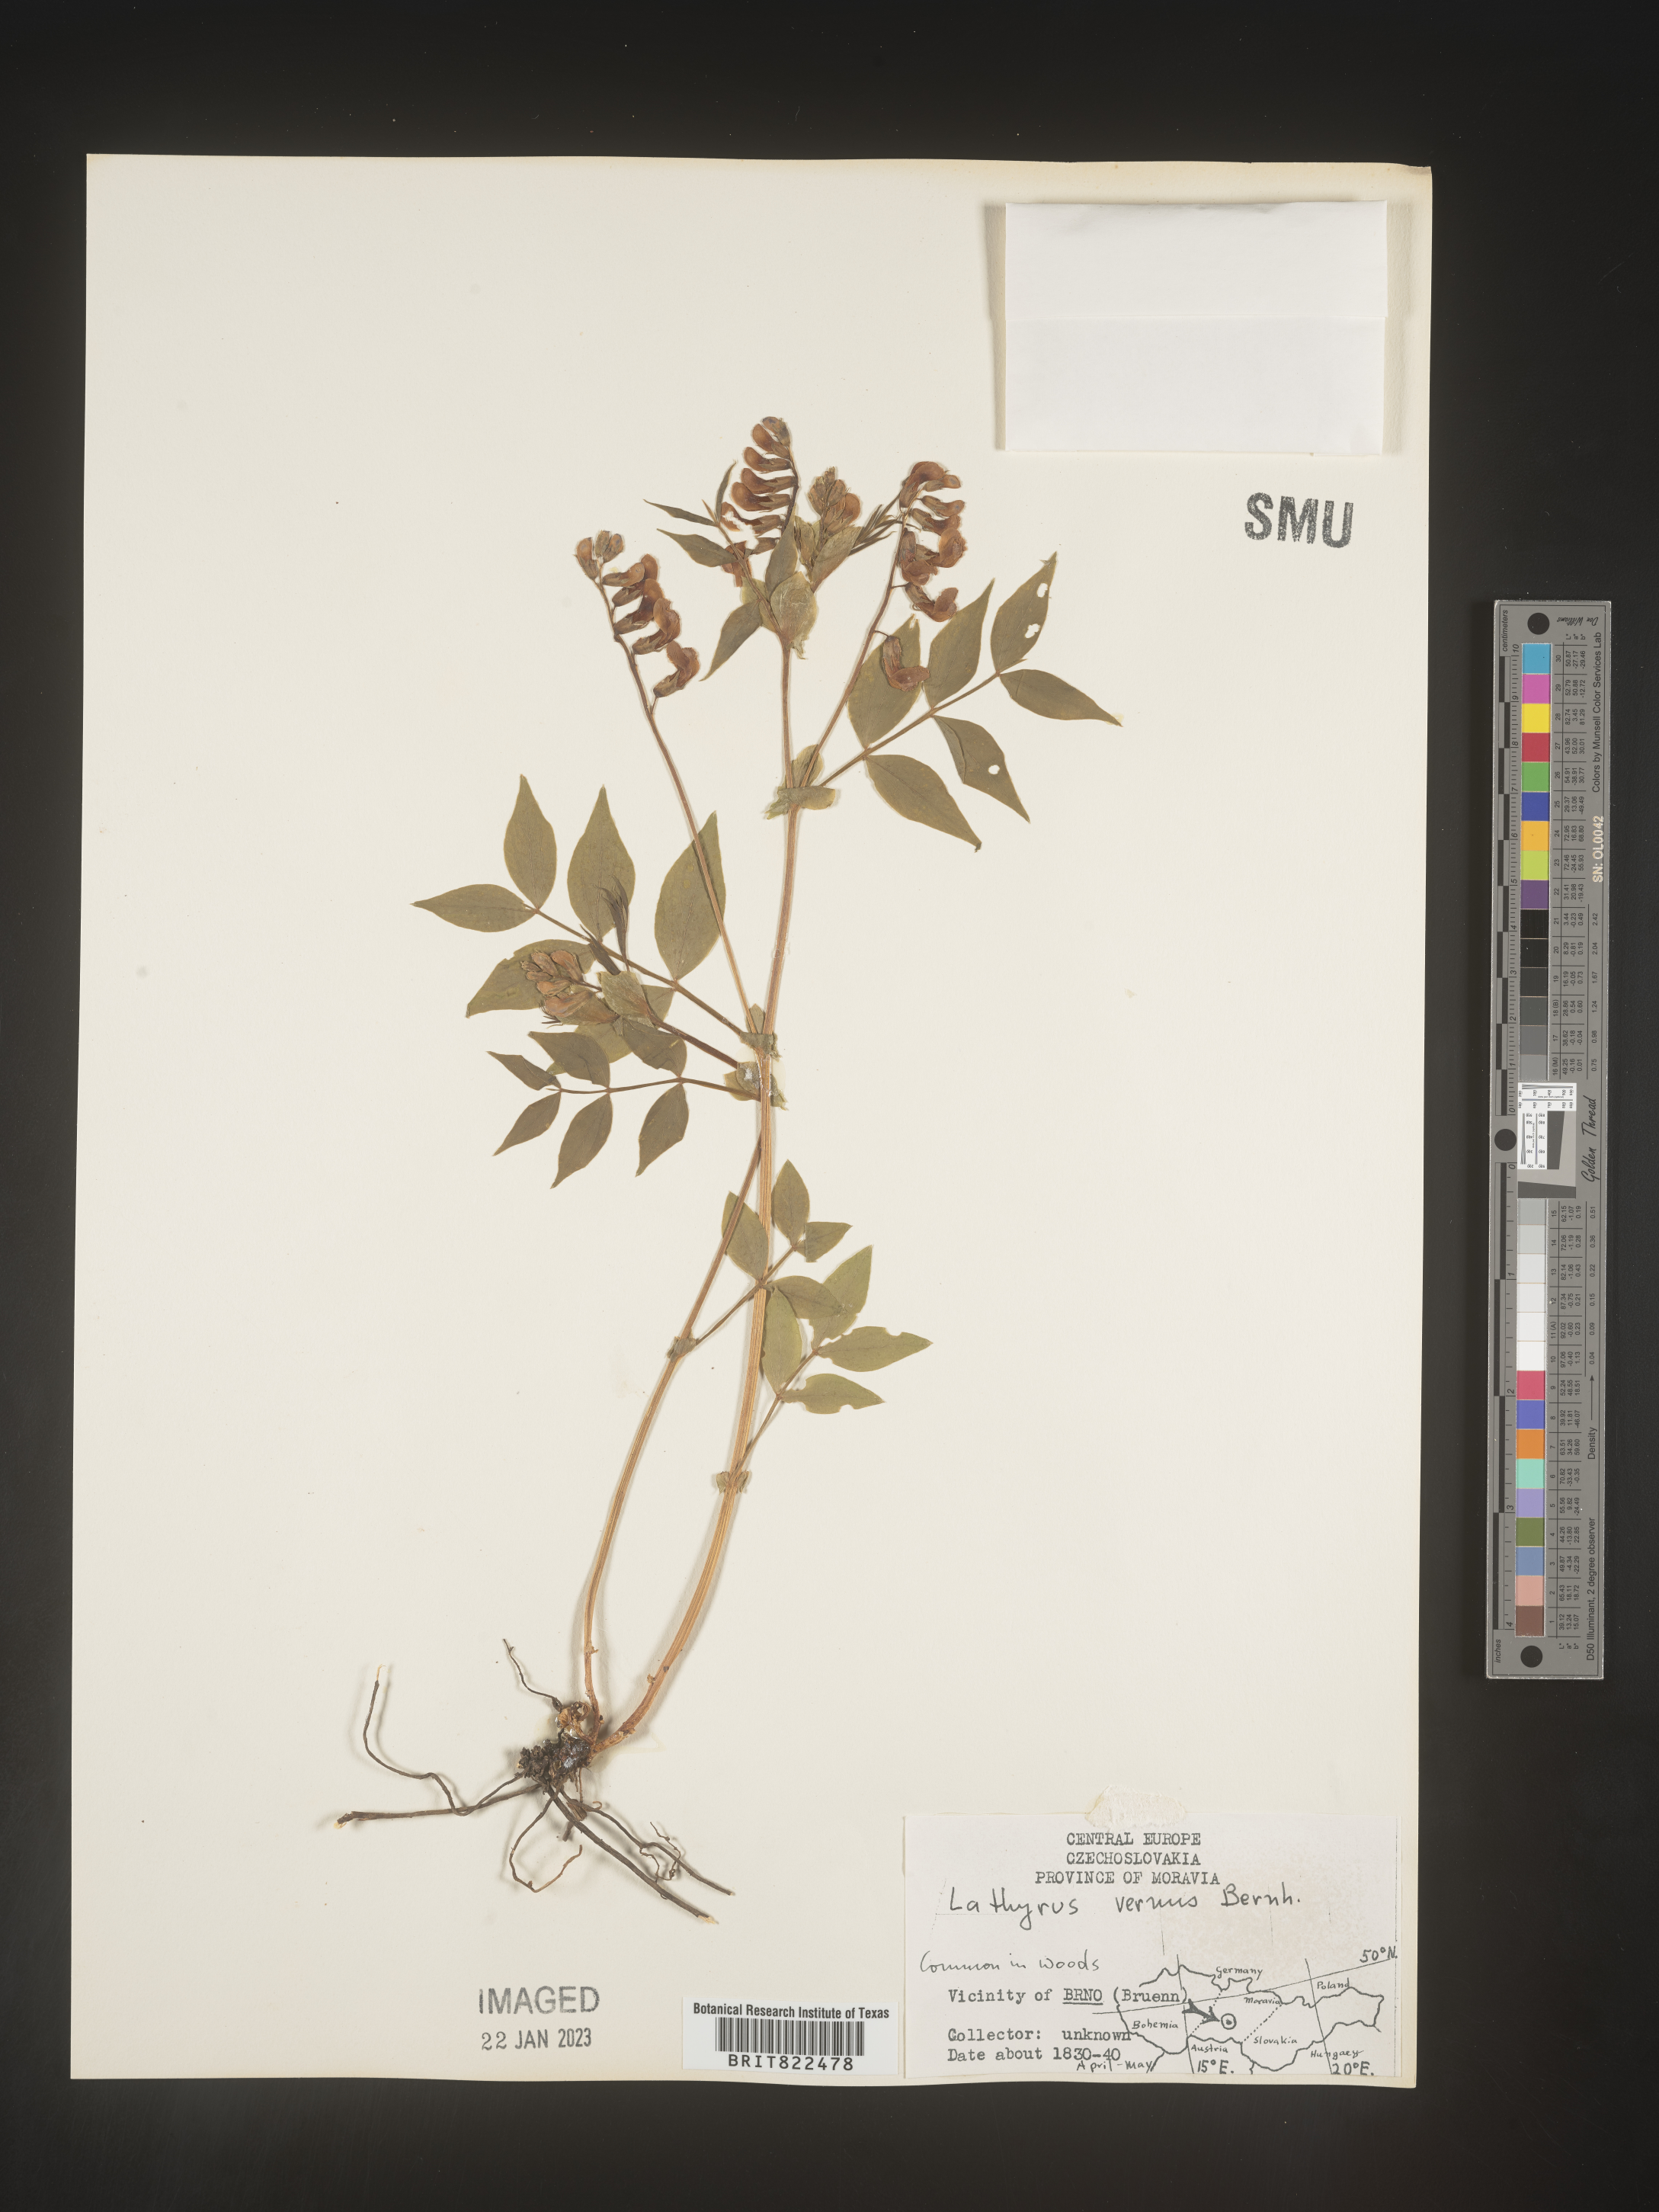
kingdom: Plantae
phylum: Tracheophyta
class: Magnoliopsida
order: Fabales
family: Fabaceae
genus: Lathyrus
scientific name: Lathyrus
